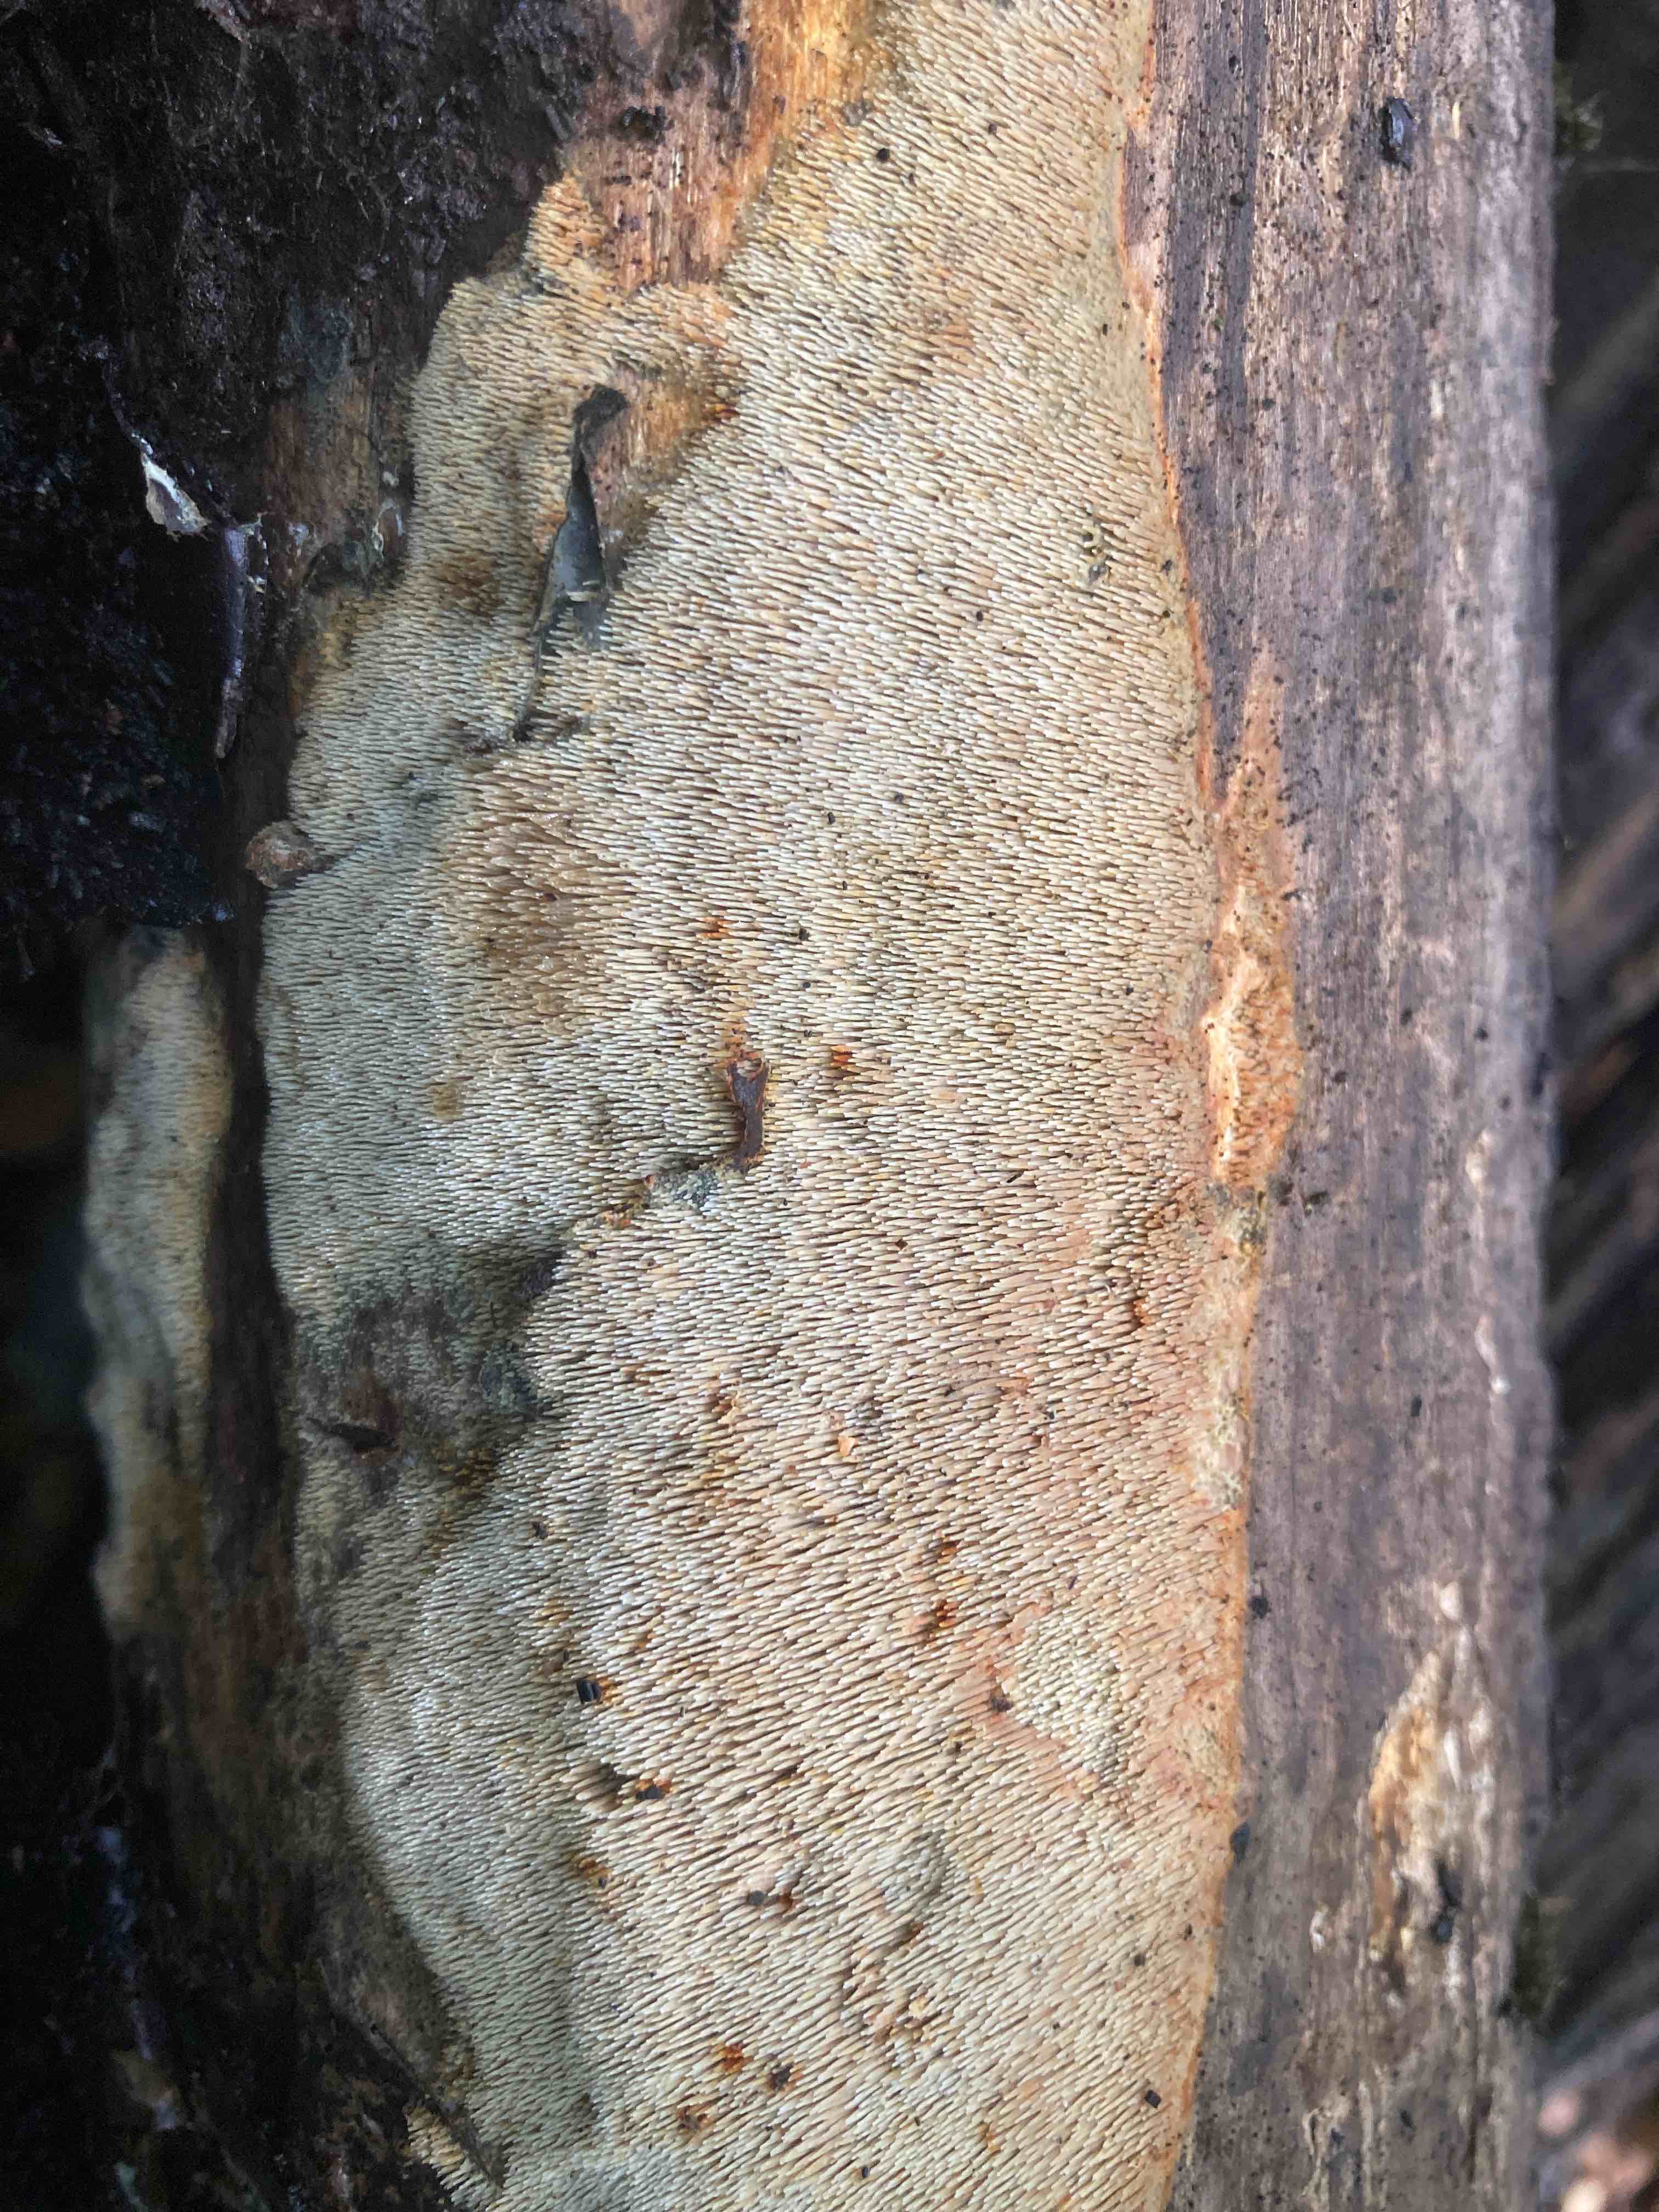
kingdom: Fungi
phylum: Basidiomycota
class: Agaricomycetes
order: Polyporales
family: Meruliaceae
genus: Mycoaciella
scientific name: Mycoaciella bispora
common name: stalaktit-vokspig
